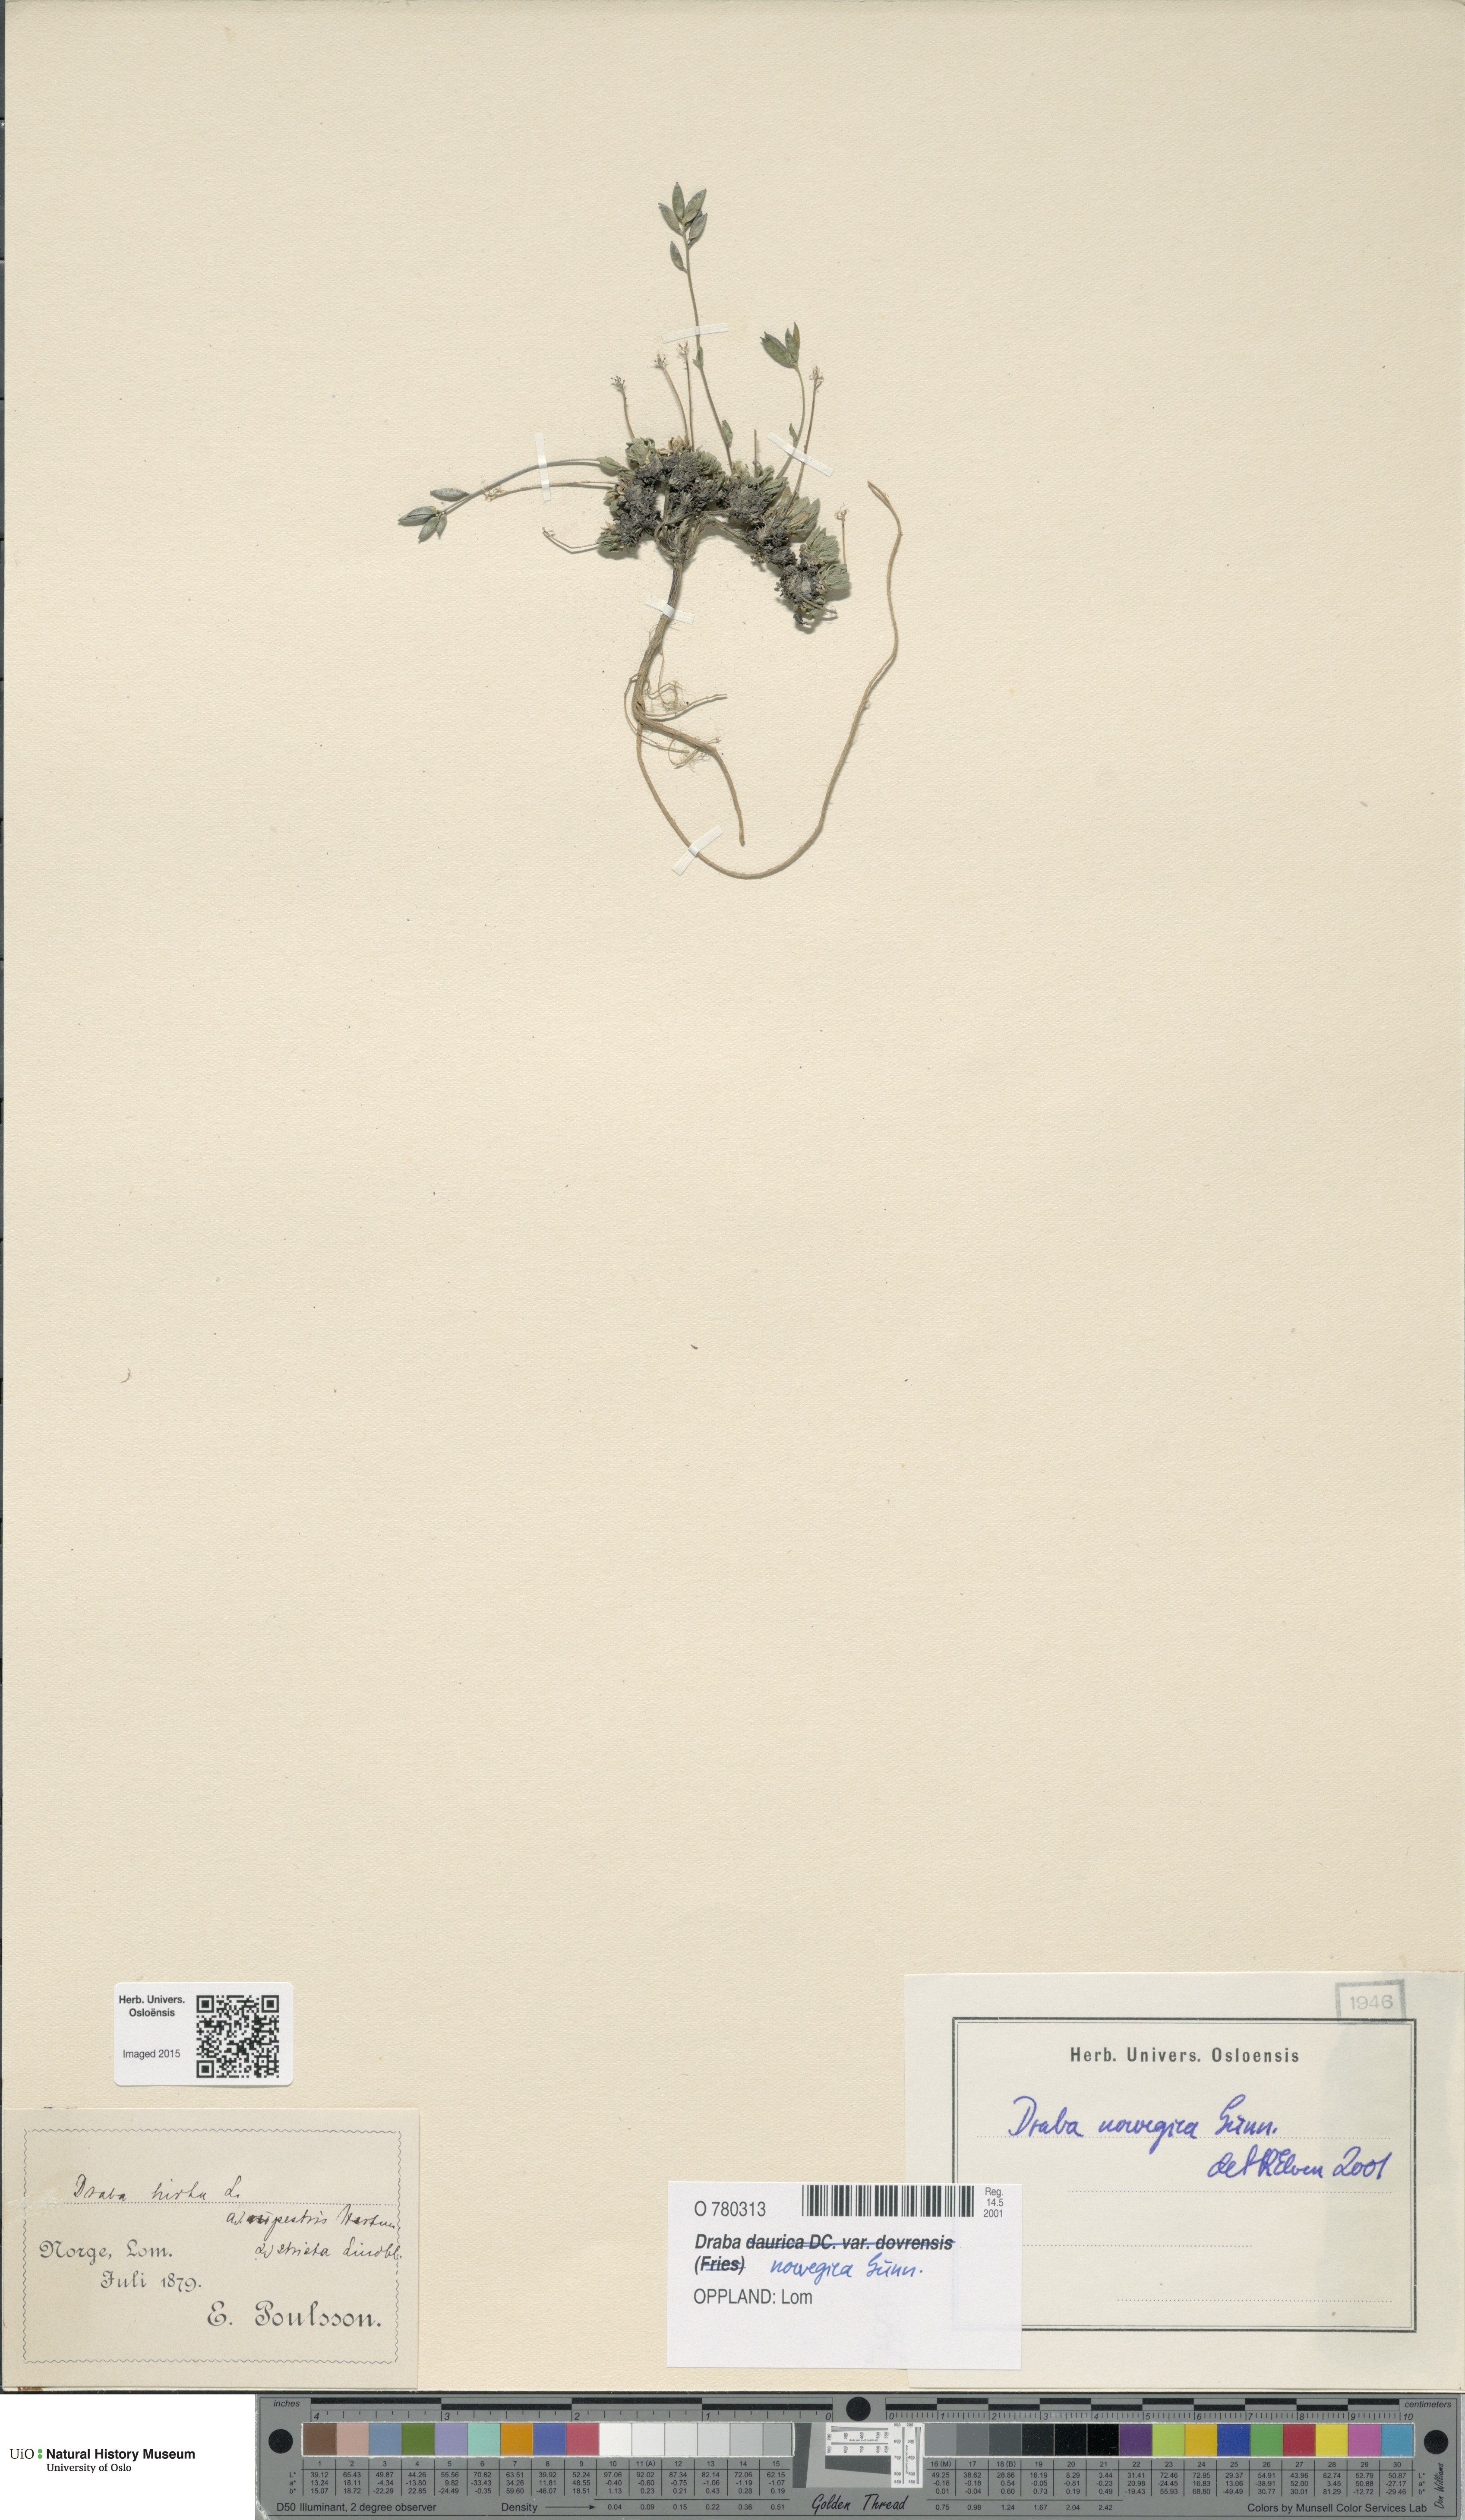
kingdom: Plantae
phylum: Tracheophyta
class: Magnoliopsida
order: Brassicales
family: Brassicaceae
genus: Draba
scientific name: Draba norvegica
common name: Rock whitlowgrass
